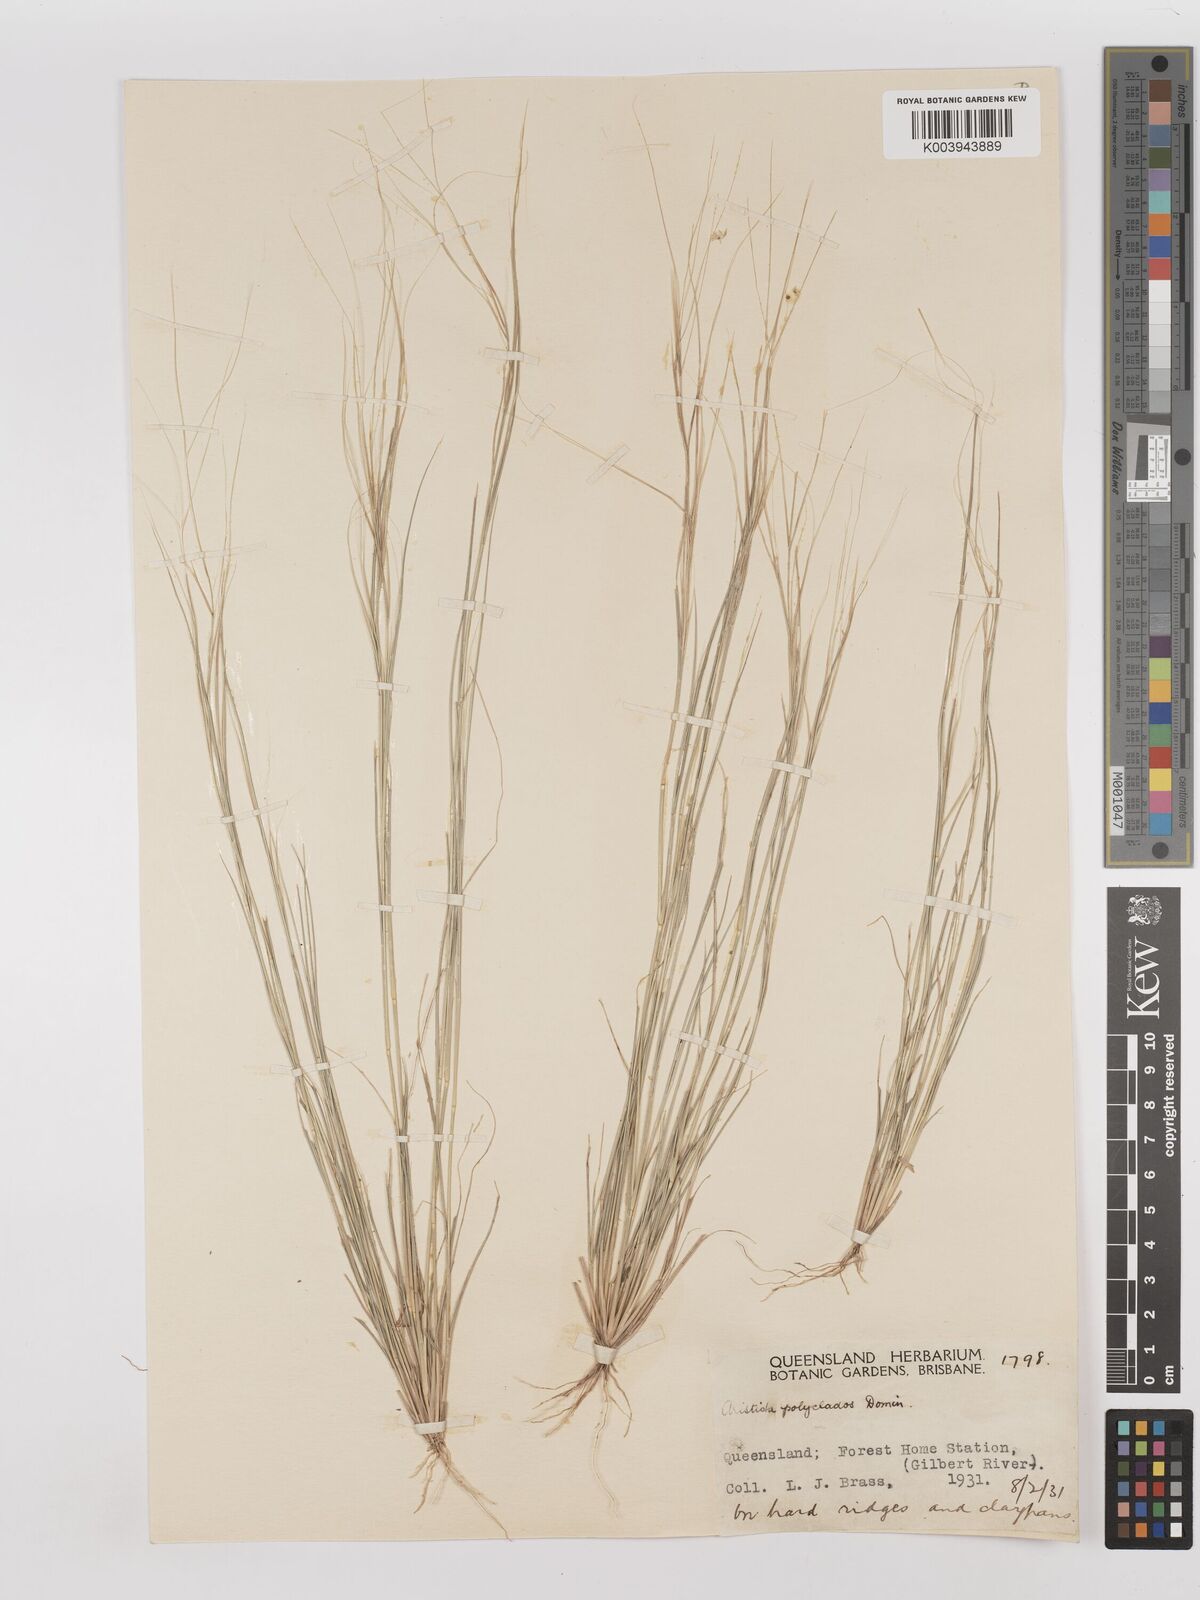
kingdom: Plantae
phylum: Tracheophyta
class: Liliopsida
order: Poales
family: Poaceae
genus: Aristida
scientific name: Aristida polyclados
